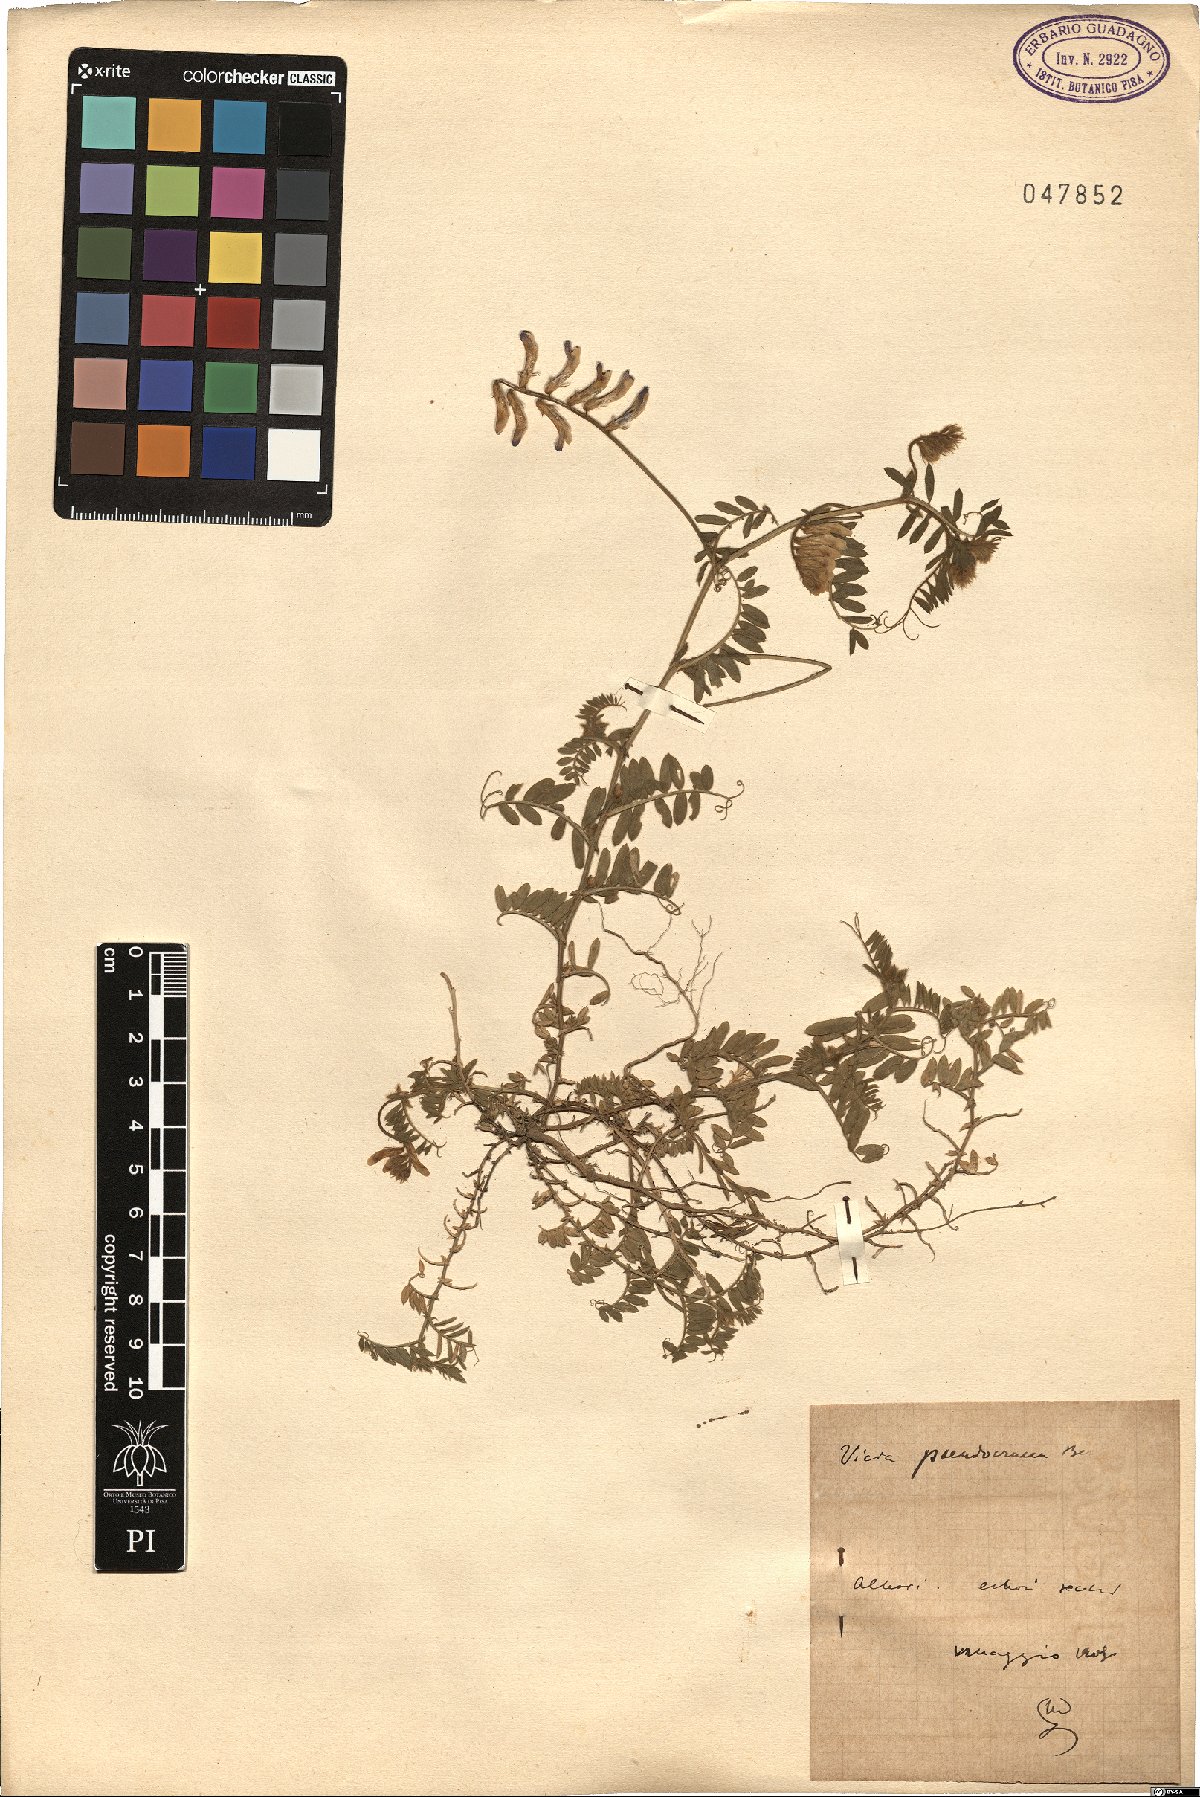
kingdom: Plantae
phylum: Tracheophyta
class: Magnoliopsida
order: Fabales
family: Fabaceae
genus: Vicia
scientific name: Vicia villosa
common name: Fodder vetch
